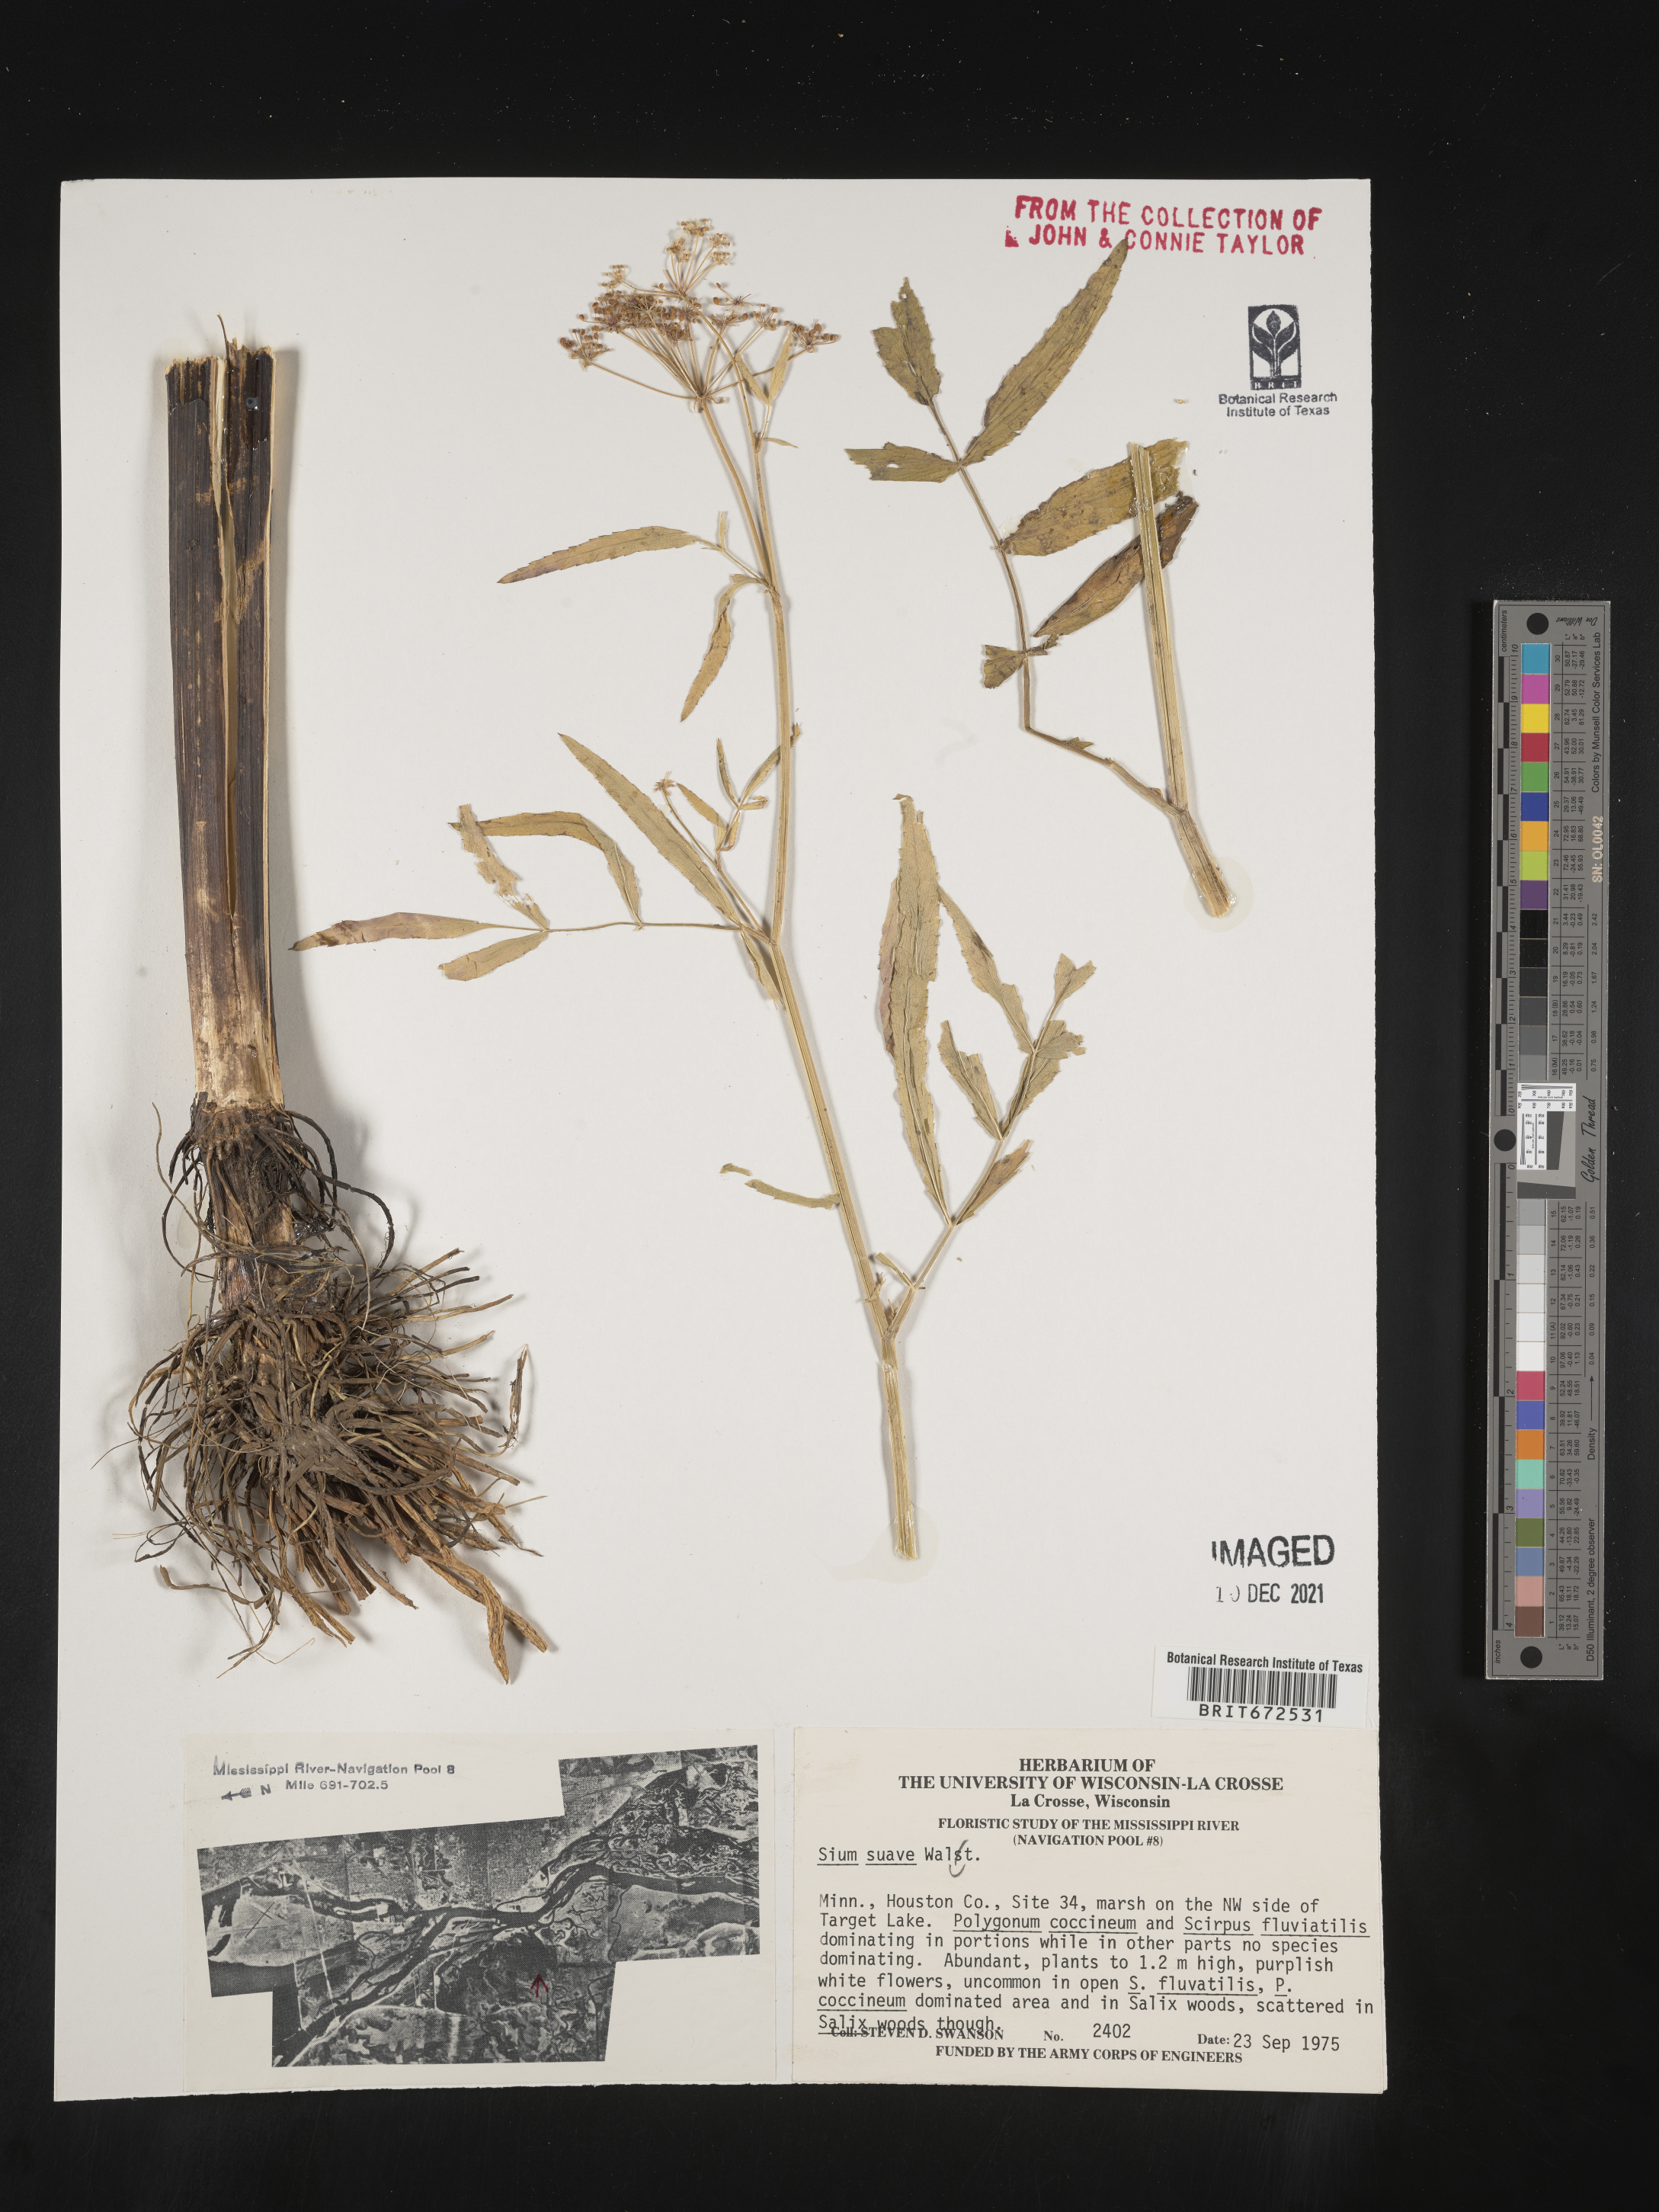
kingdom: Plantae
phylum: Tracheophyta
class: Magnoliopsida
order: Apiales
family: Apiaceae
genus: Sium
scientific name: Sium suave
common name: Hemlock water-parsnip
